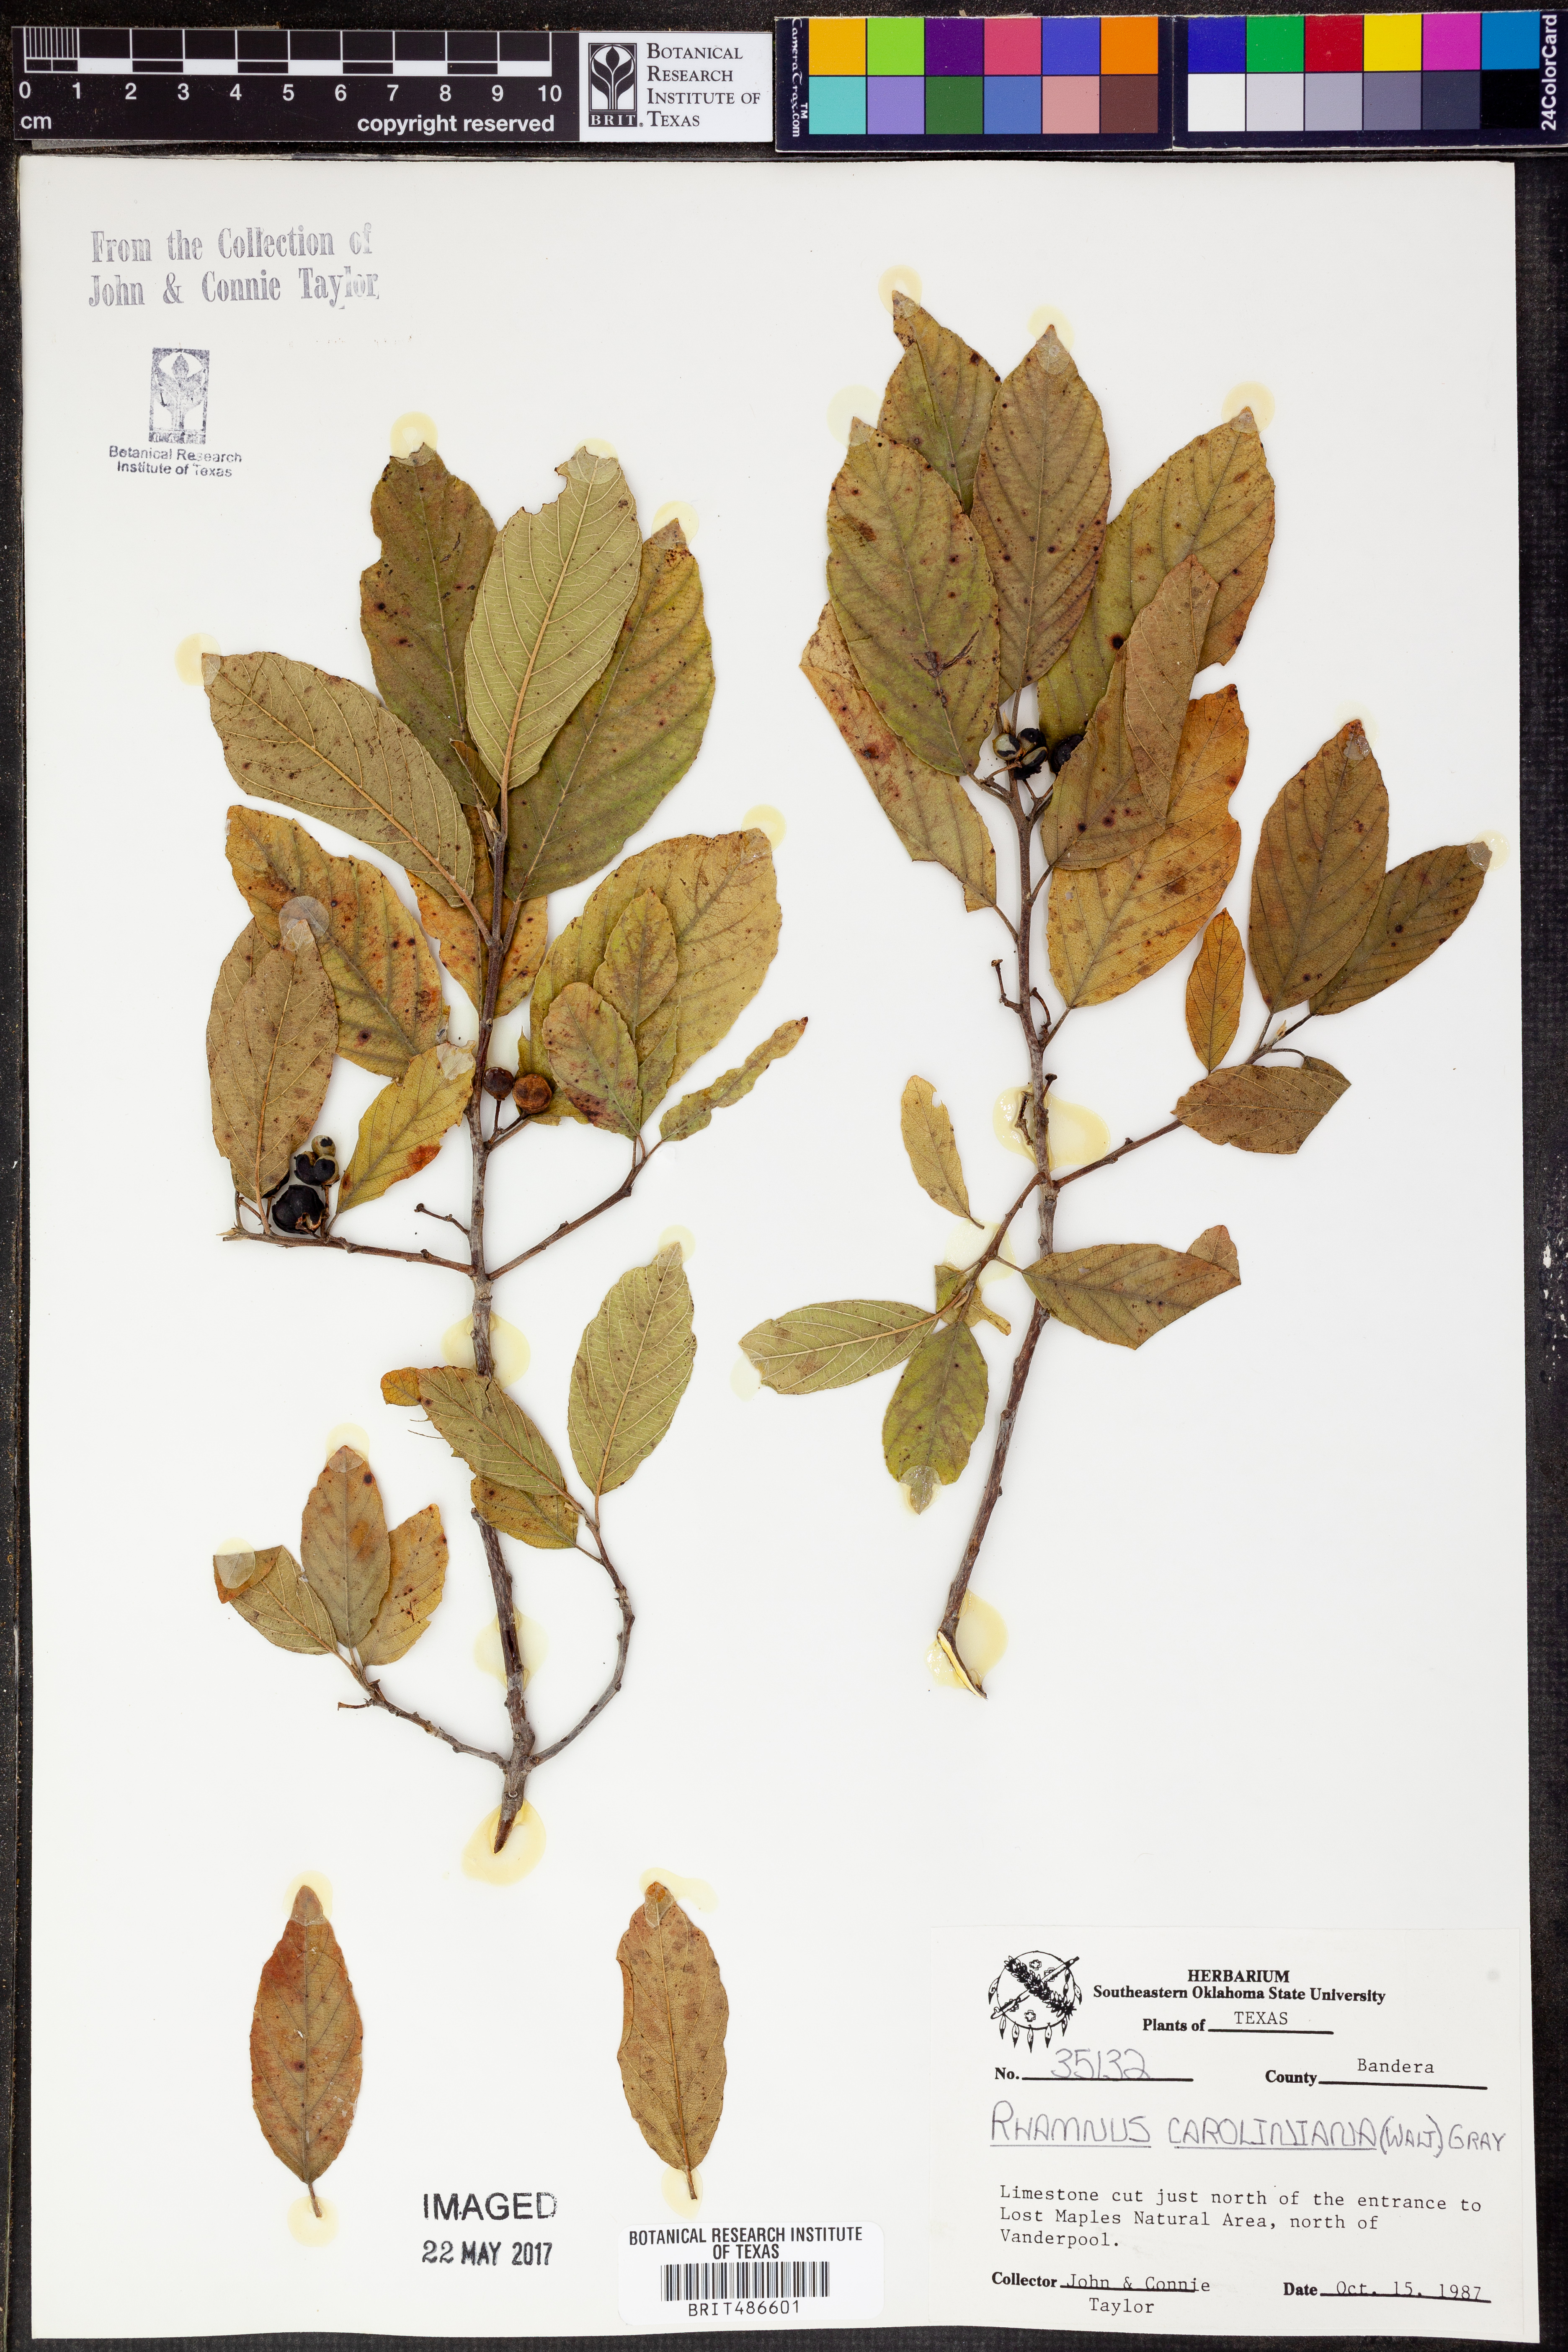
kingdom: Plantae
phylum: Tracheophyta
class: Magnoliopsida
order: Rosales
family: Rhamnaceae
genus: Frangula
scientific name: Frangula caroliniana
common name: Carolina buckthorn
